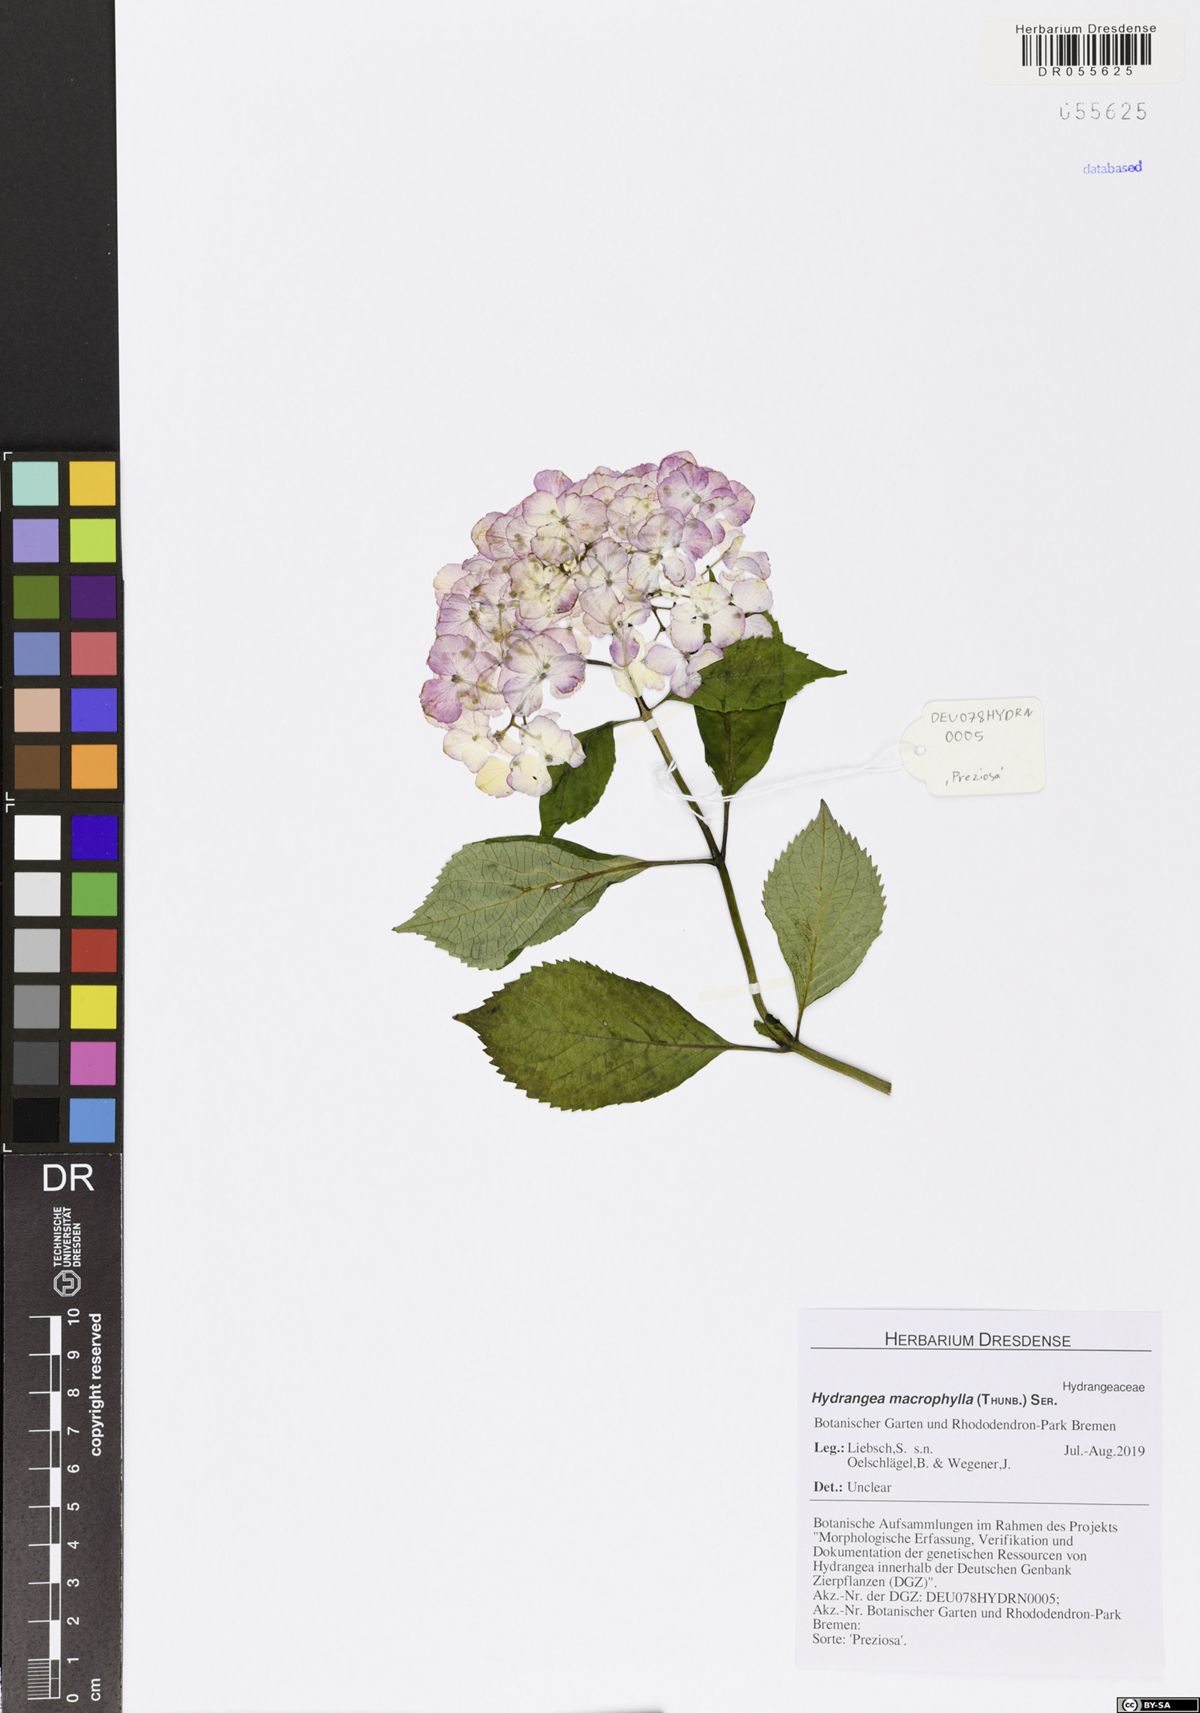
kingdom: Plantae
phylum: Tracheophyta
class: Magnoliopsida
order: Cornales
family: Hydrangeaceae
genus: Hydrangea
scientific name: Hydrangea macrophylla
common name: Hydrangea
